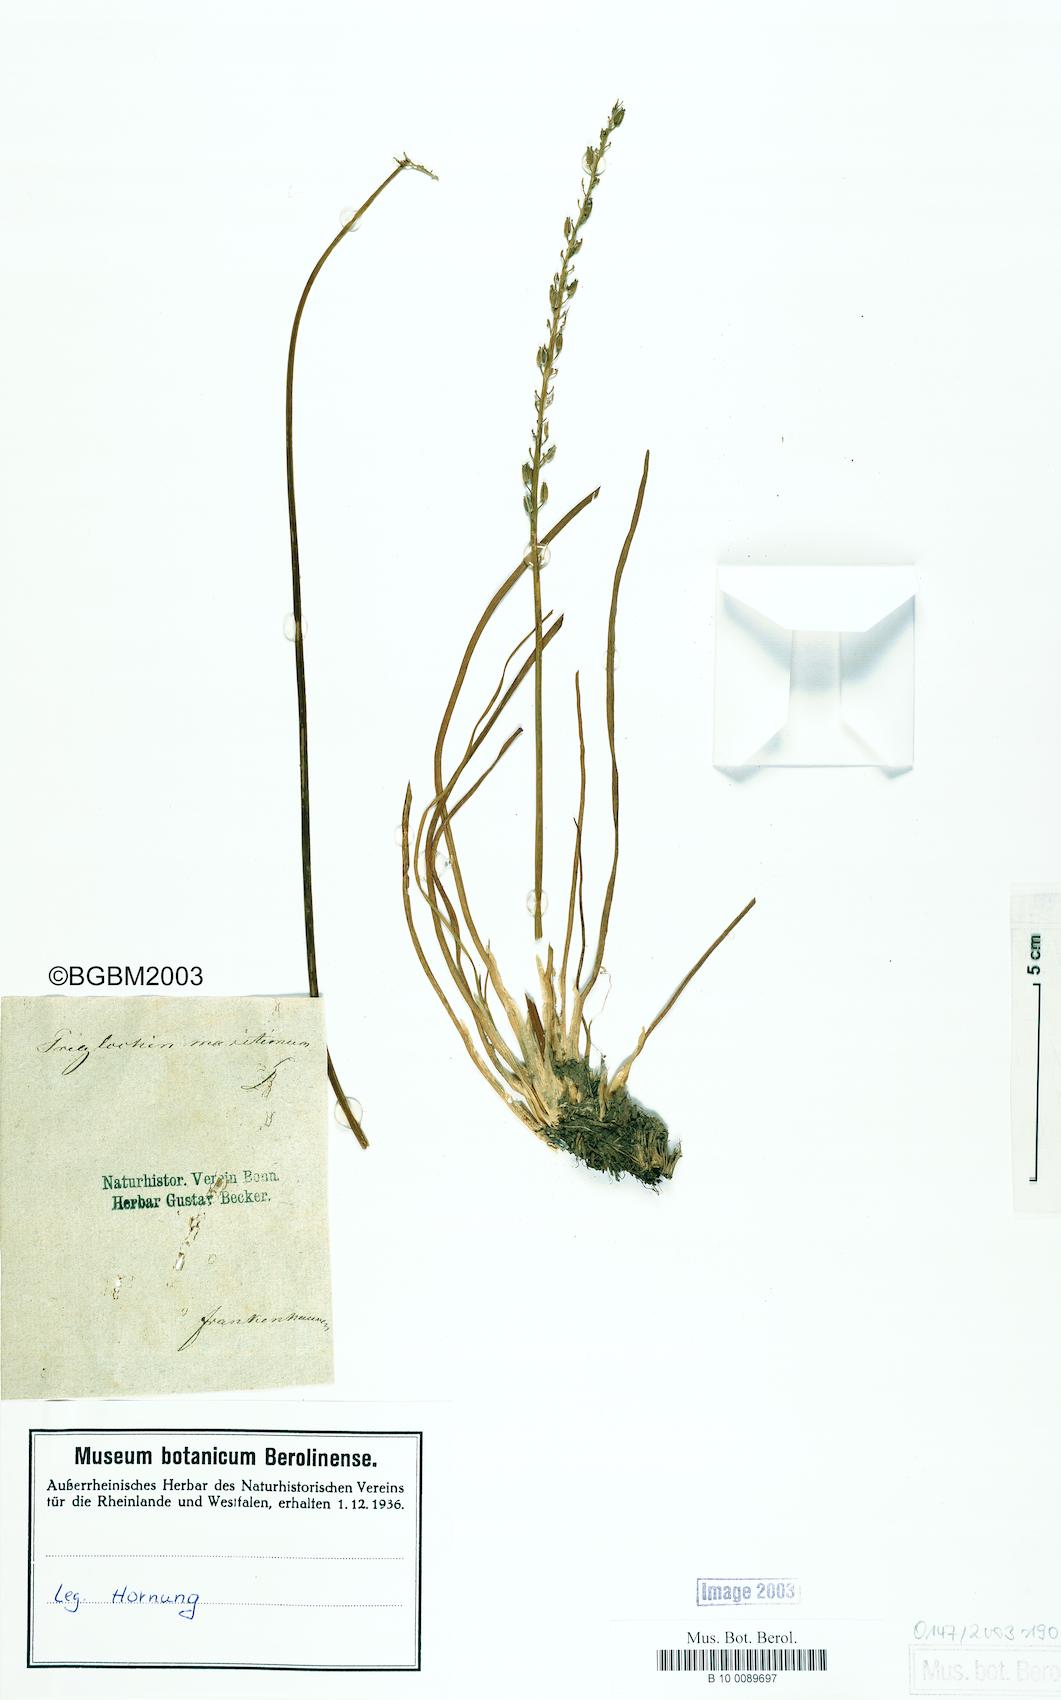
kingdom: Plantae
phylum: Tracheophyta
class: Liliopsida
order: Alismatales
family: Juncaginaceae
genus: Triglochin
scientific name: Triglochin maritima
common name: Sea arrowgrass
